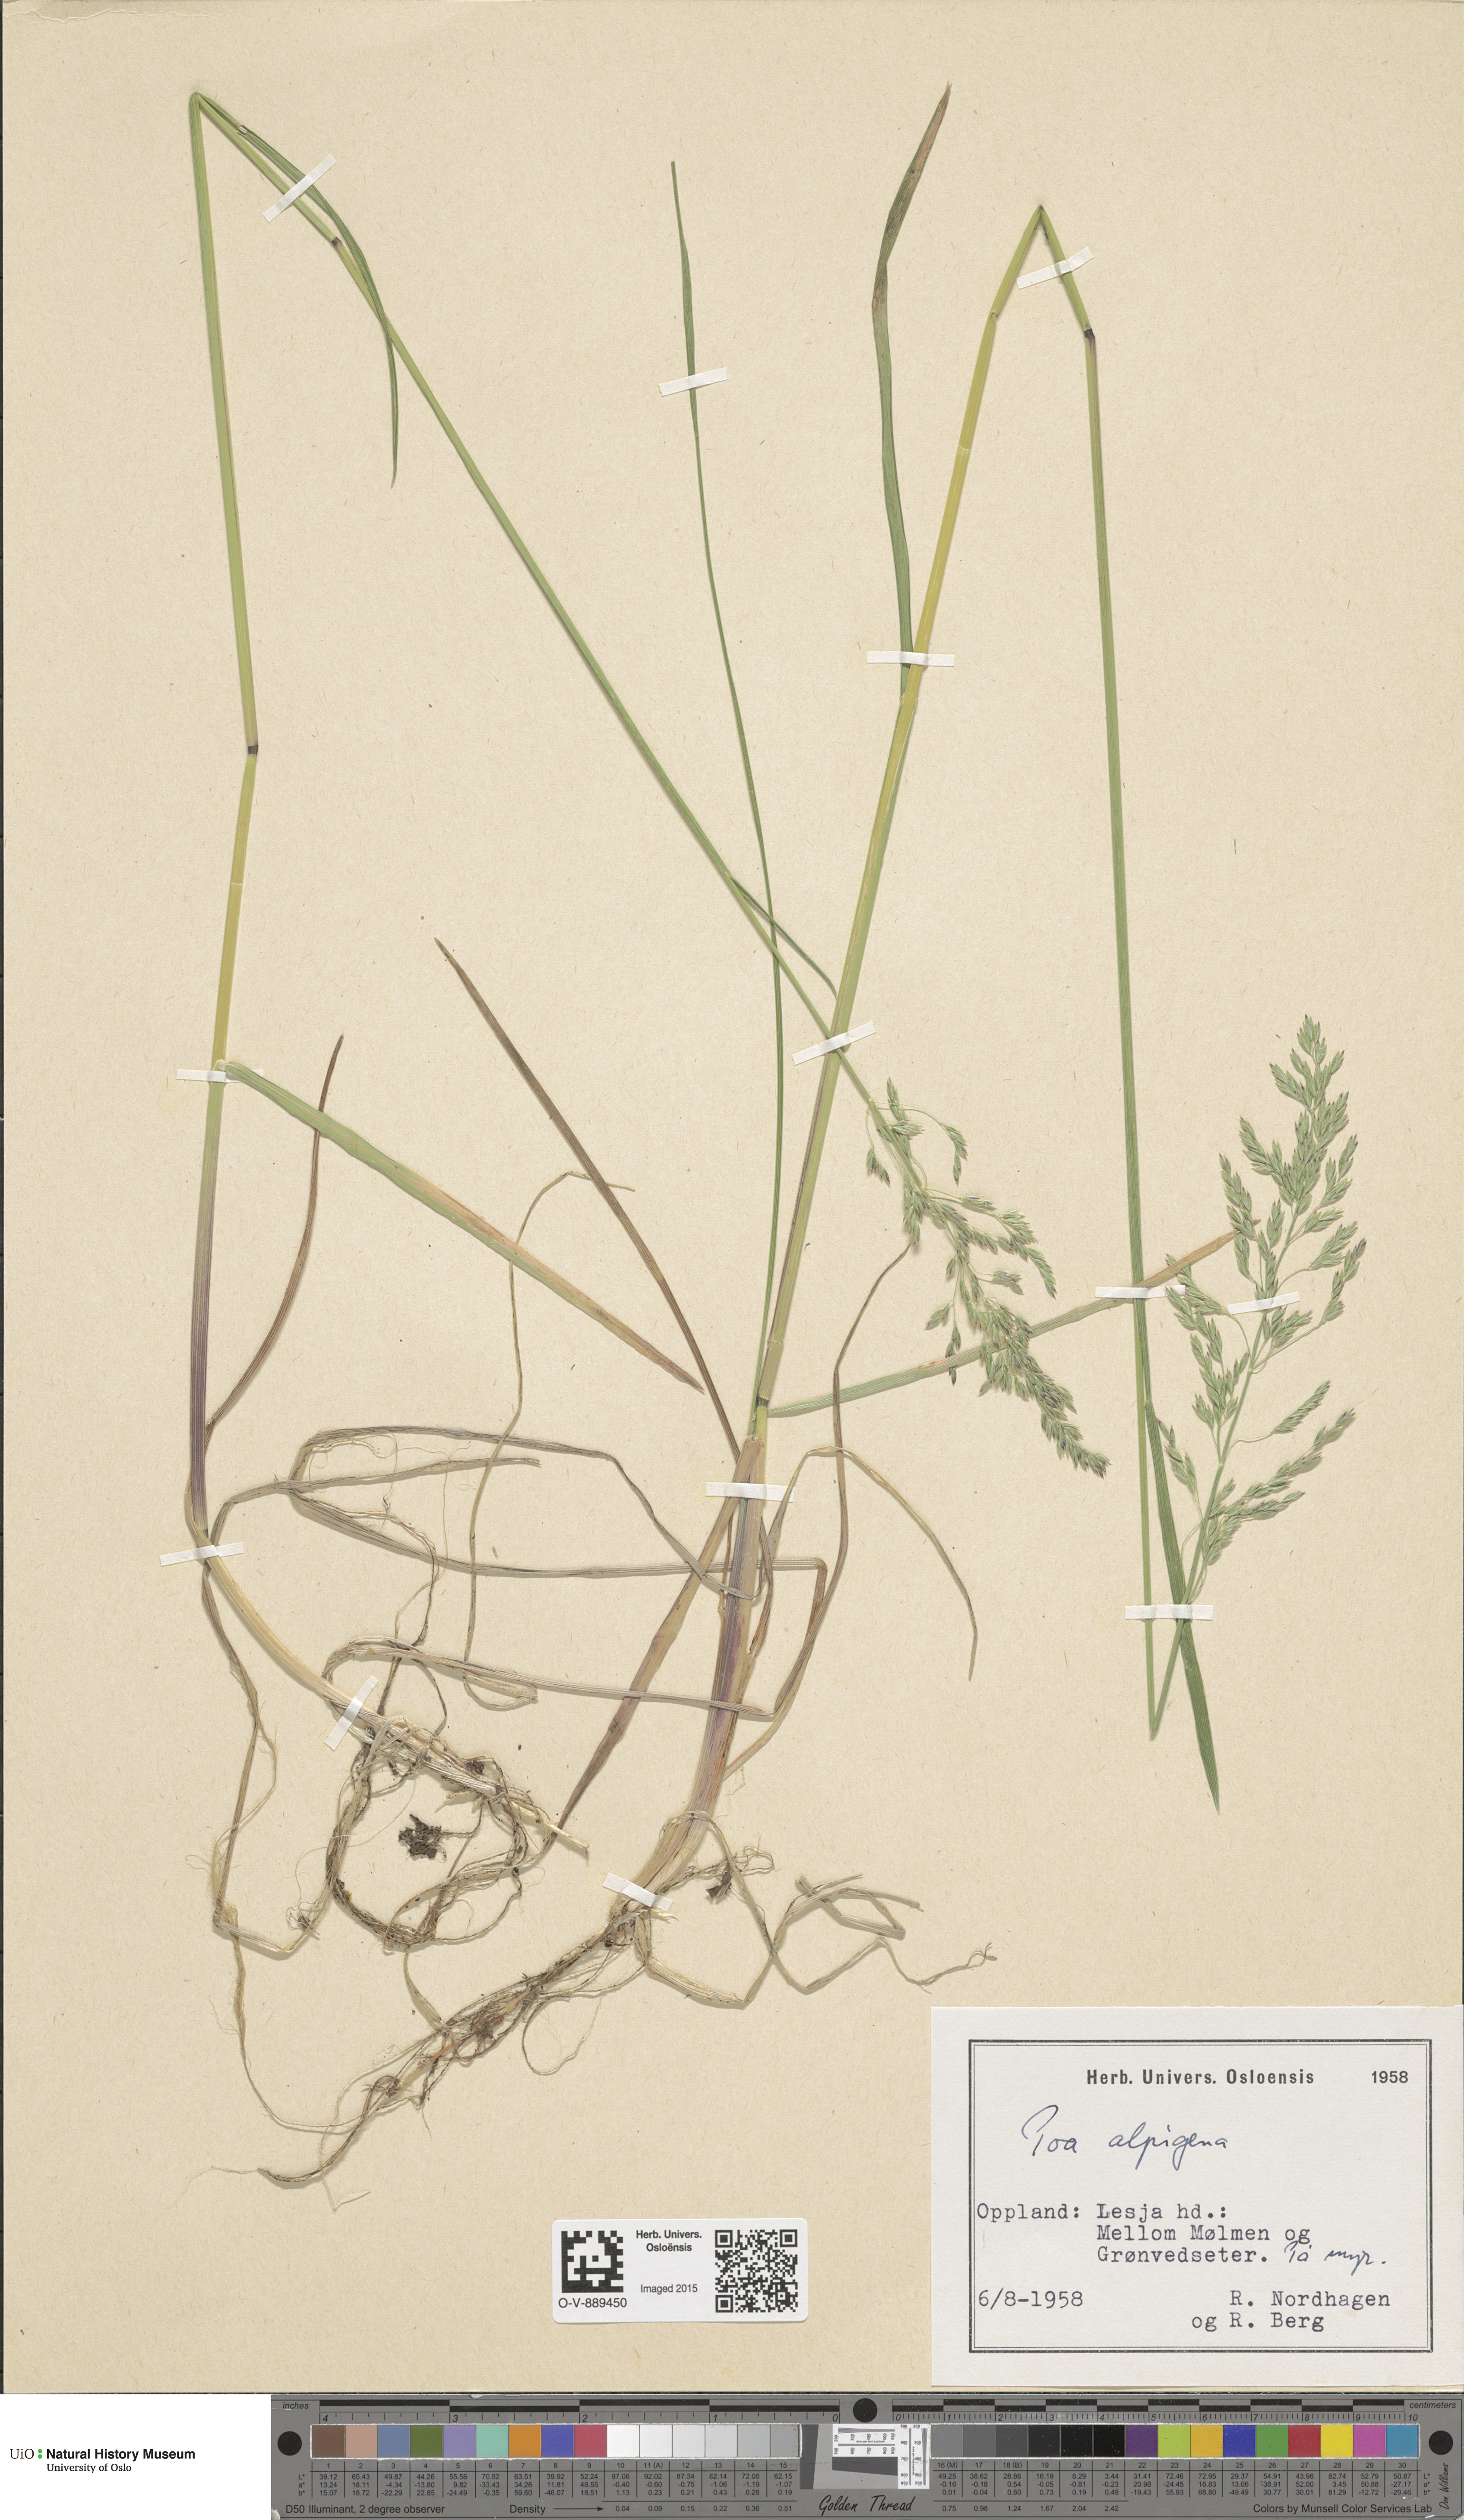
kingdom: Plantae
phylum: Tracheophyta
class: Liliopsida
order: Poales
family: Poaceae
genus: Poa
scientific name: Poa alpigena
